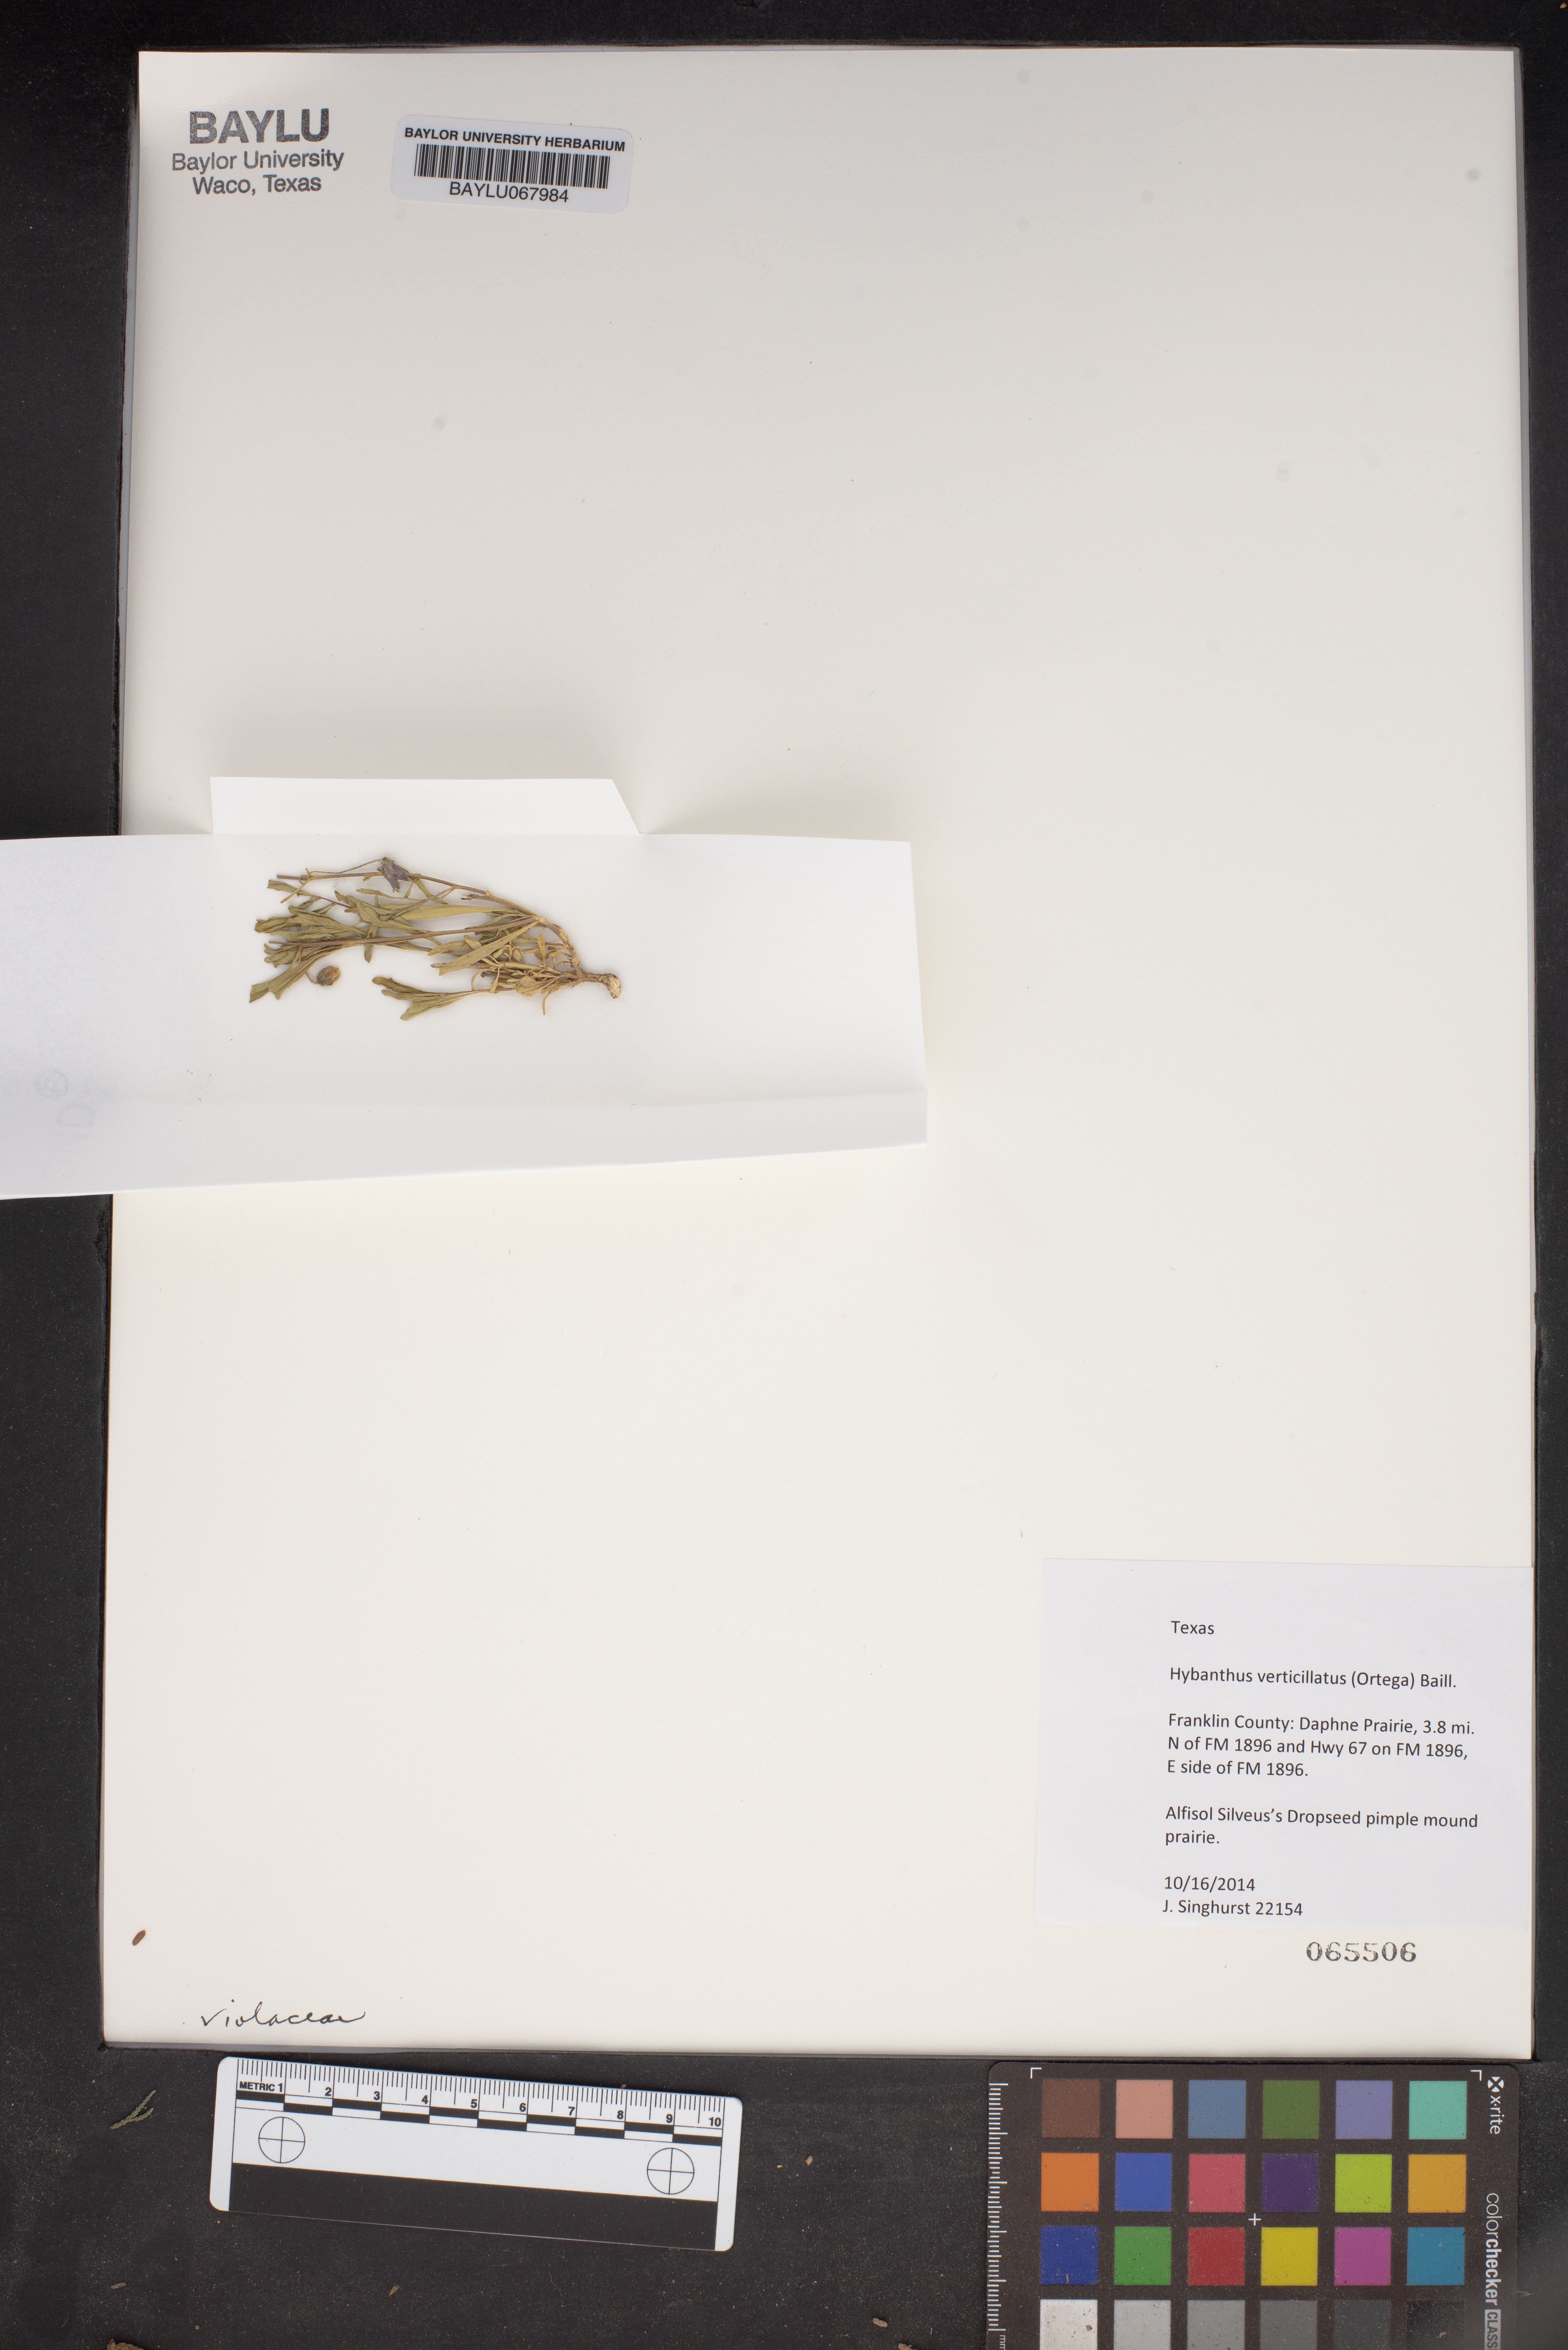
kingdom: Plantae
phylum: Tracheophyta
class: Magnoliopsida
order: Malpighiales
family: Violaceae
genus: Pombalia
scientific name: Pombalia verticillata
